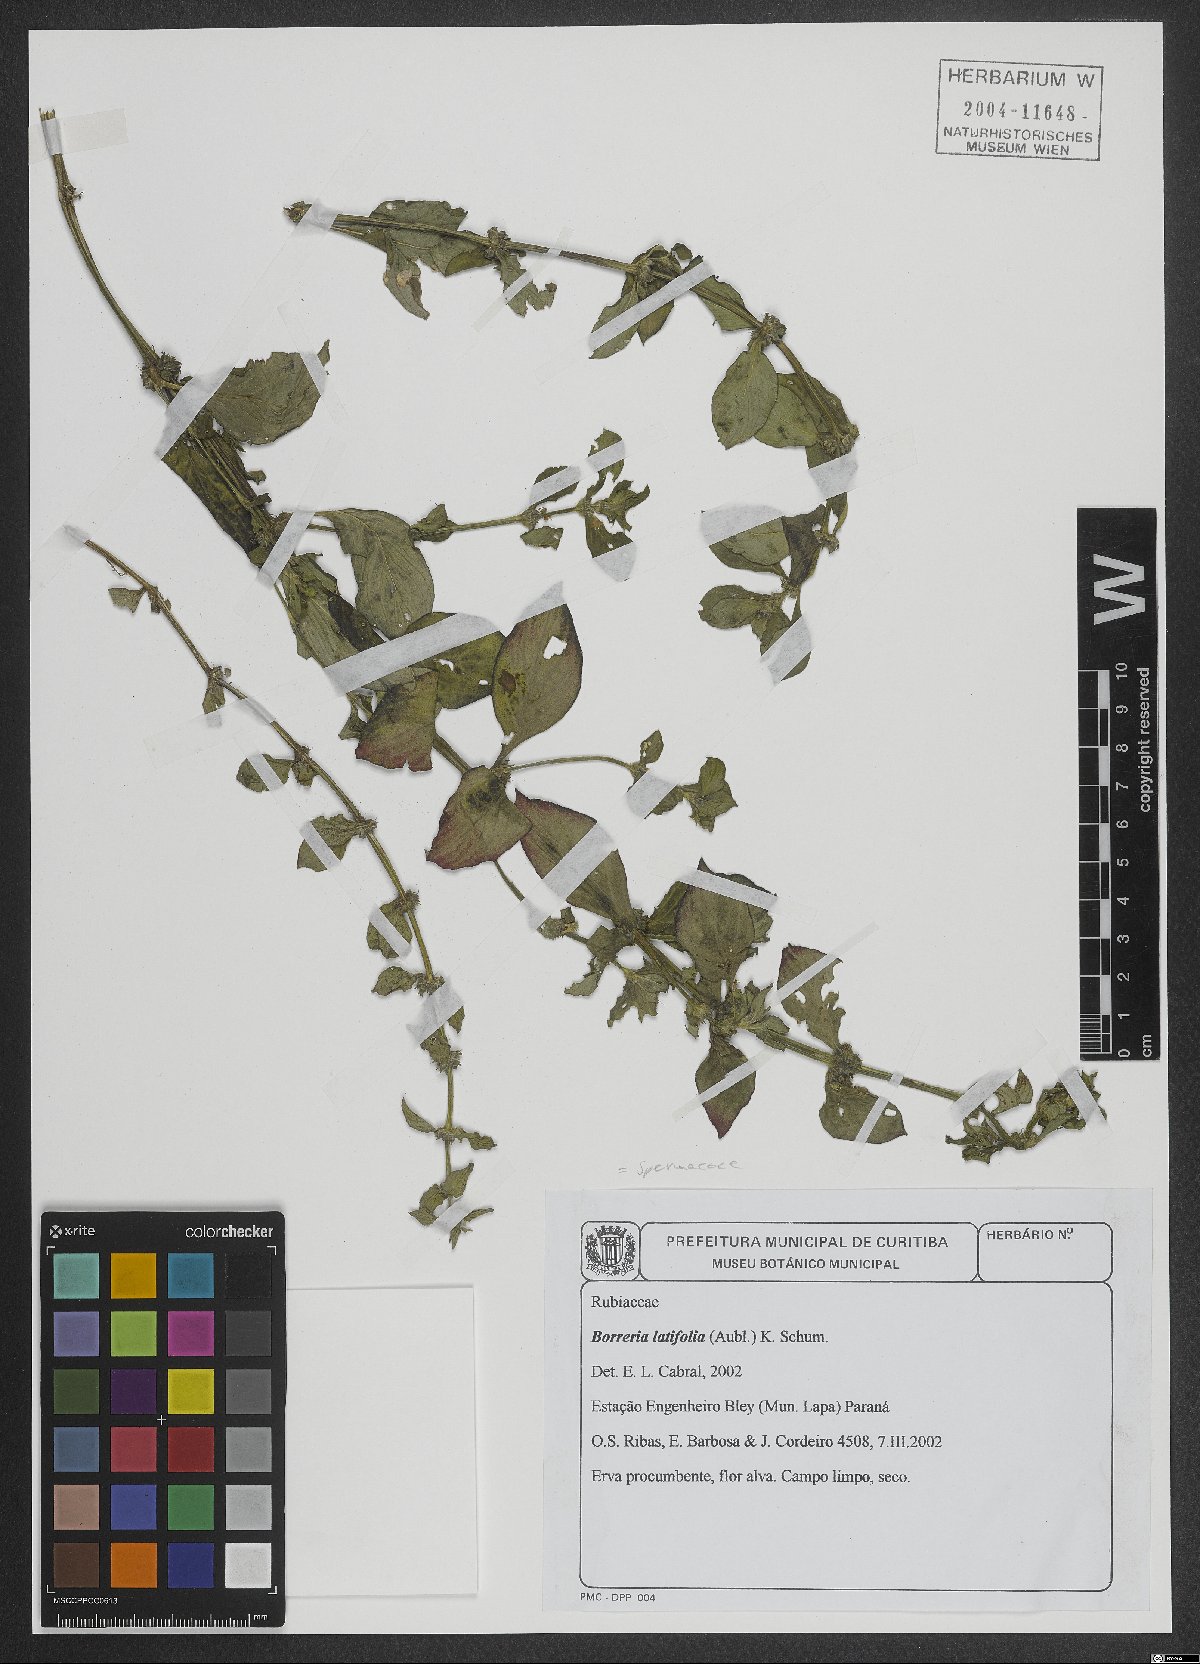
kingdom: Plantae
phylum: Tracheophyta
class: Magnoliopsida
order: Gentianales
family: Rubiaceae
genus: Spermacoce
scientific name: Spermacoce latifolia
